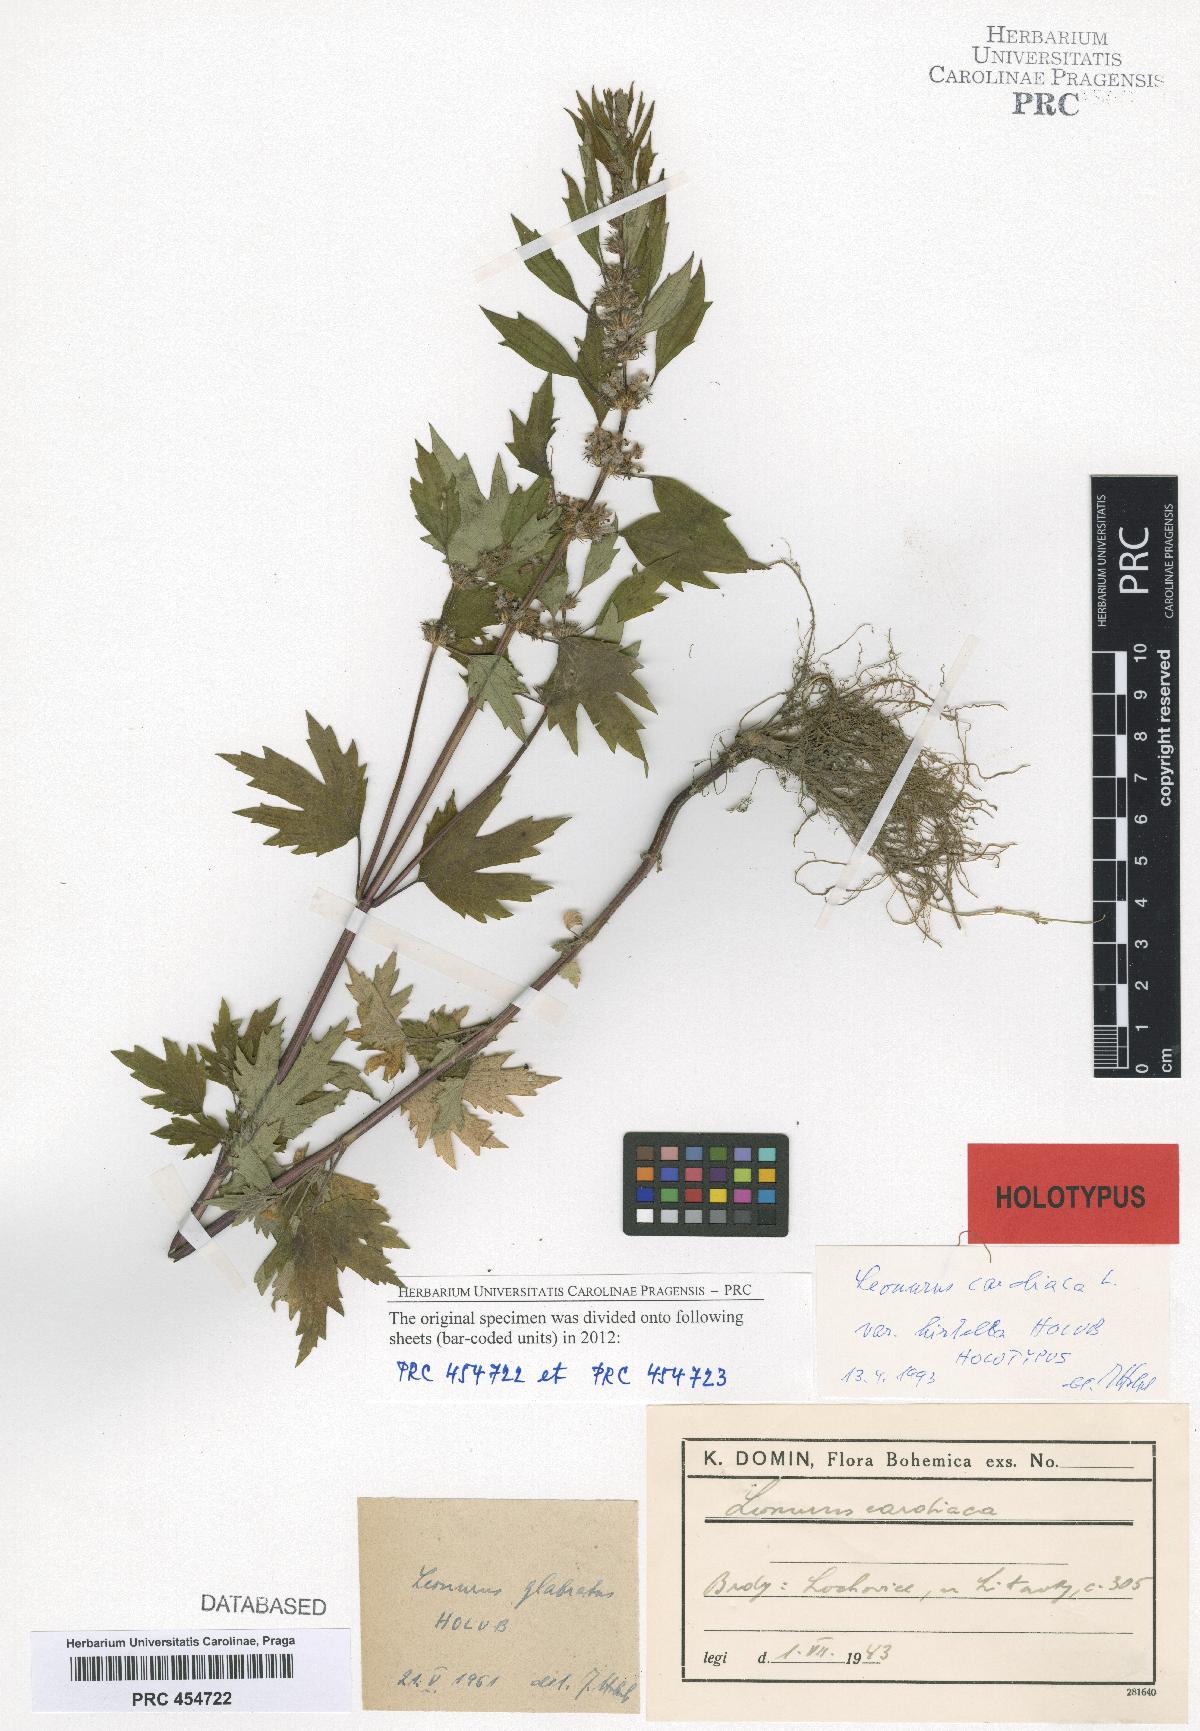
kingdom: Plantae
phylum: Tracheophyta
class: Magnoliopsida
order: Lamiales
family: Lamiaceae
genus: Leonurus
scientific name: Leonurus cardiaca
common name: Motherwort
